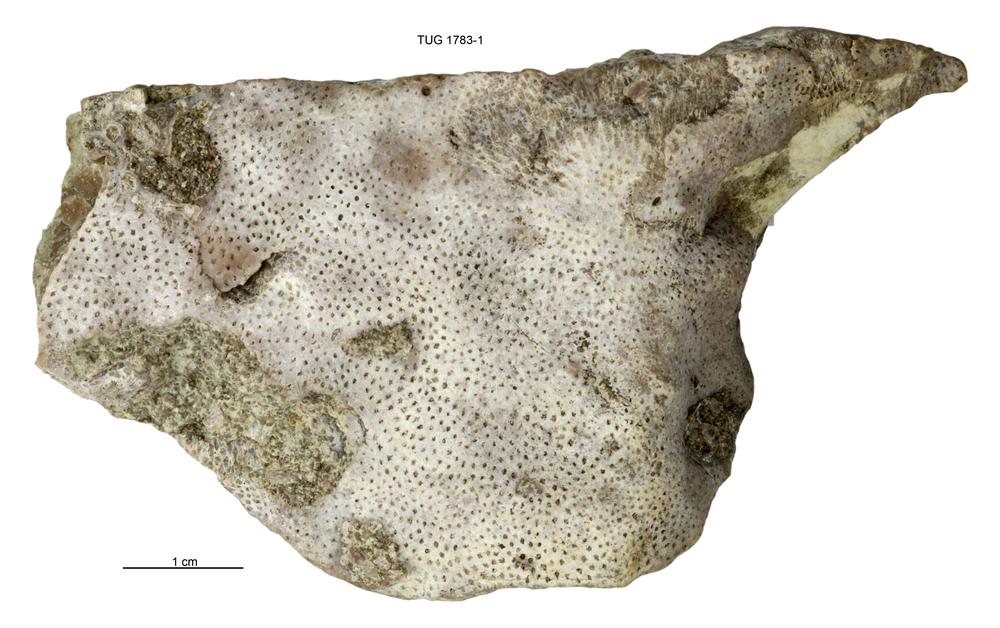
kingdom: Animalia
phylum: Cnidaria
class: Anthozoa
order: Heliolitina
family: Heliolitidae
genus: Heliolites
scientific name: Heliolites
